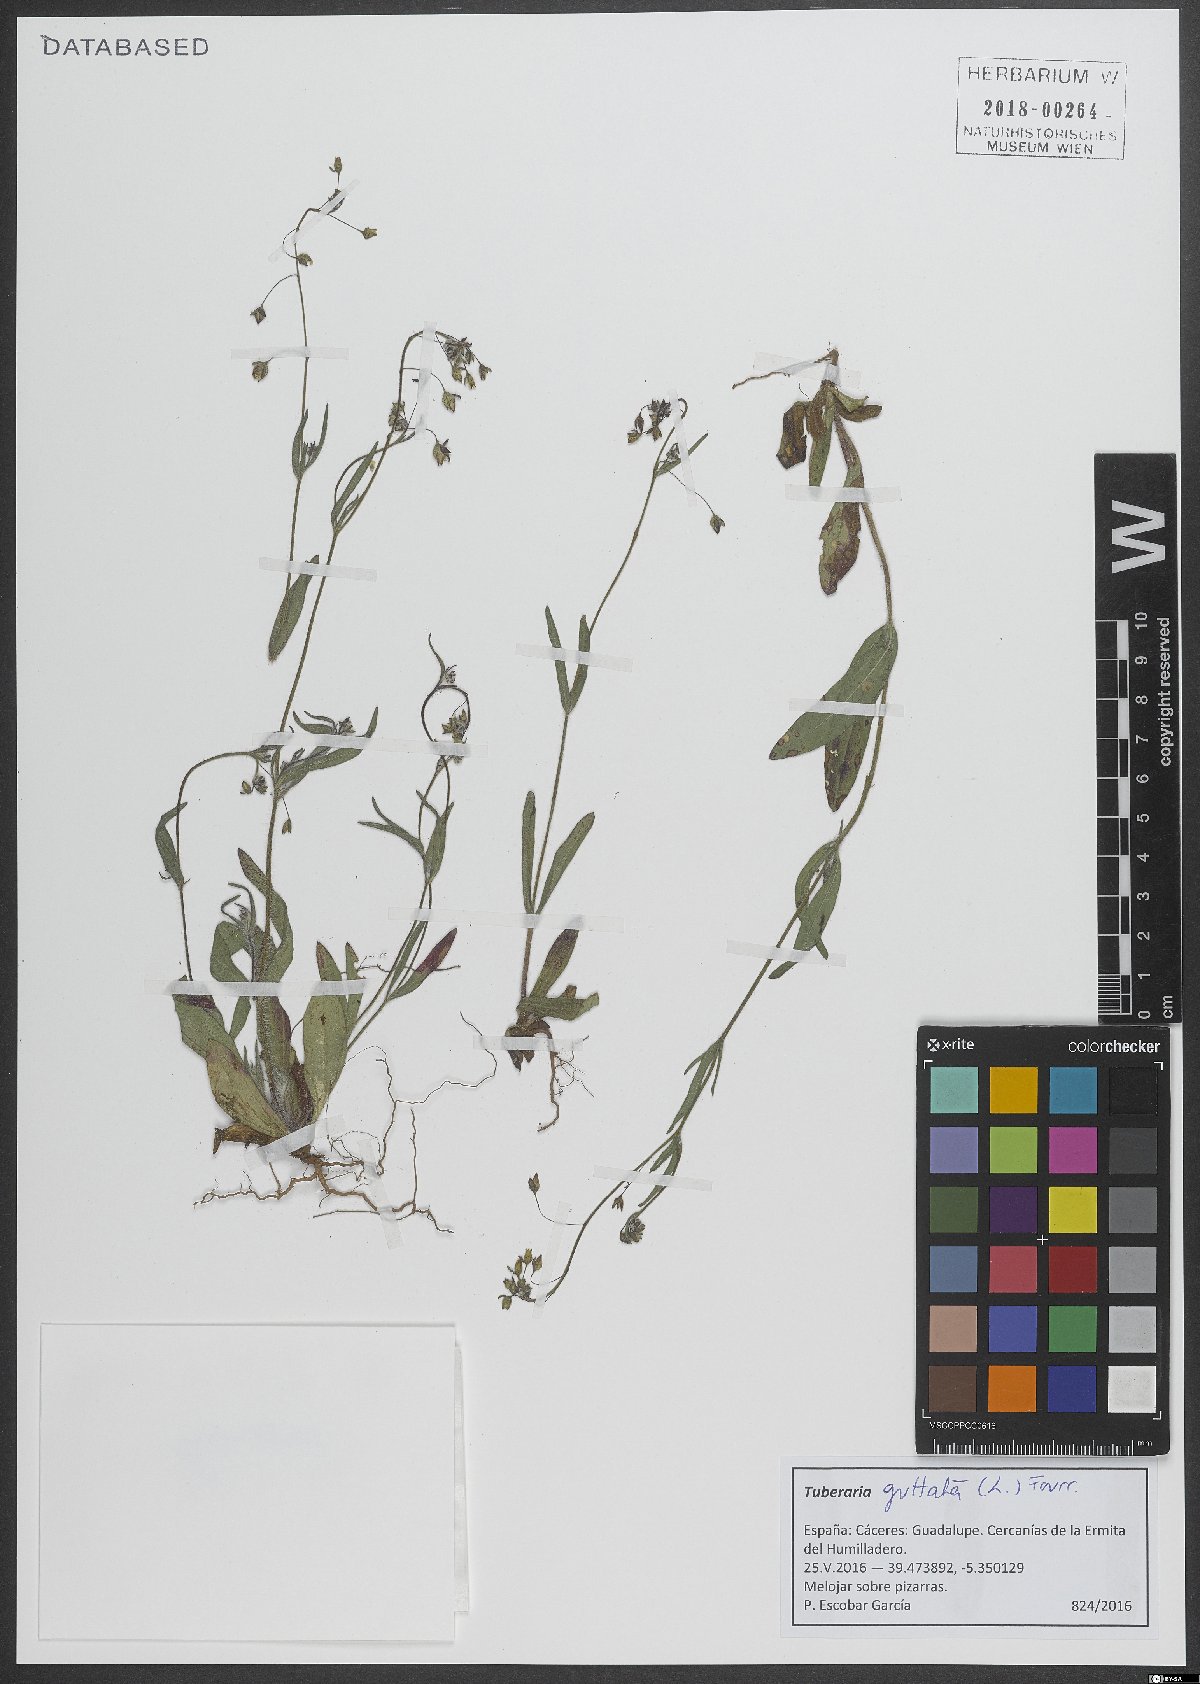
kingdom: Plantae
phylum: Tracheophyta
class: Magnoliopsida
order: Malvales
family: Cistaceae
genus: Tuberaria
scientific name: Tuberaria guttata
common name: Spotted rock-rose
